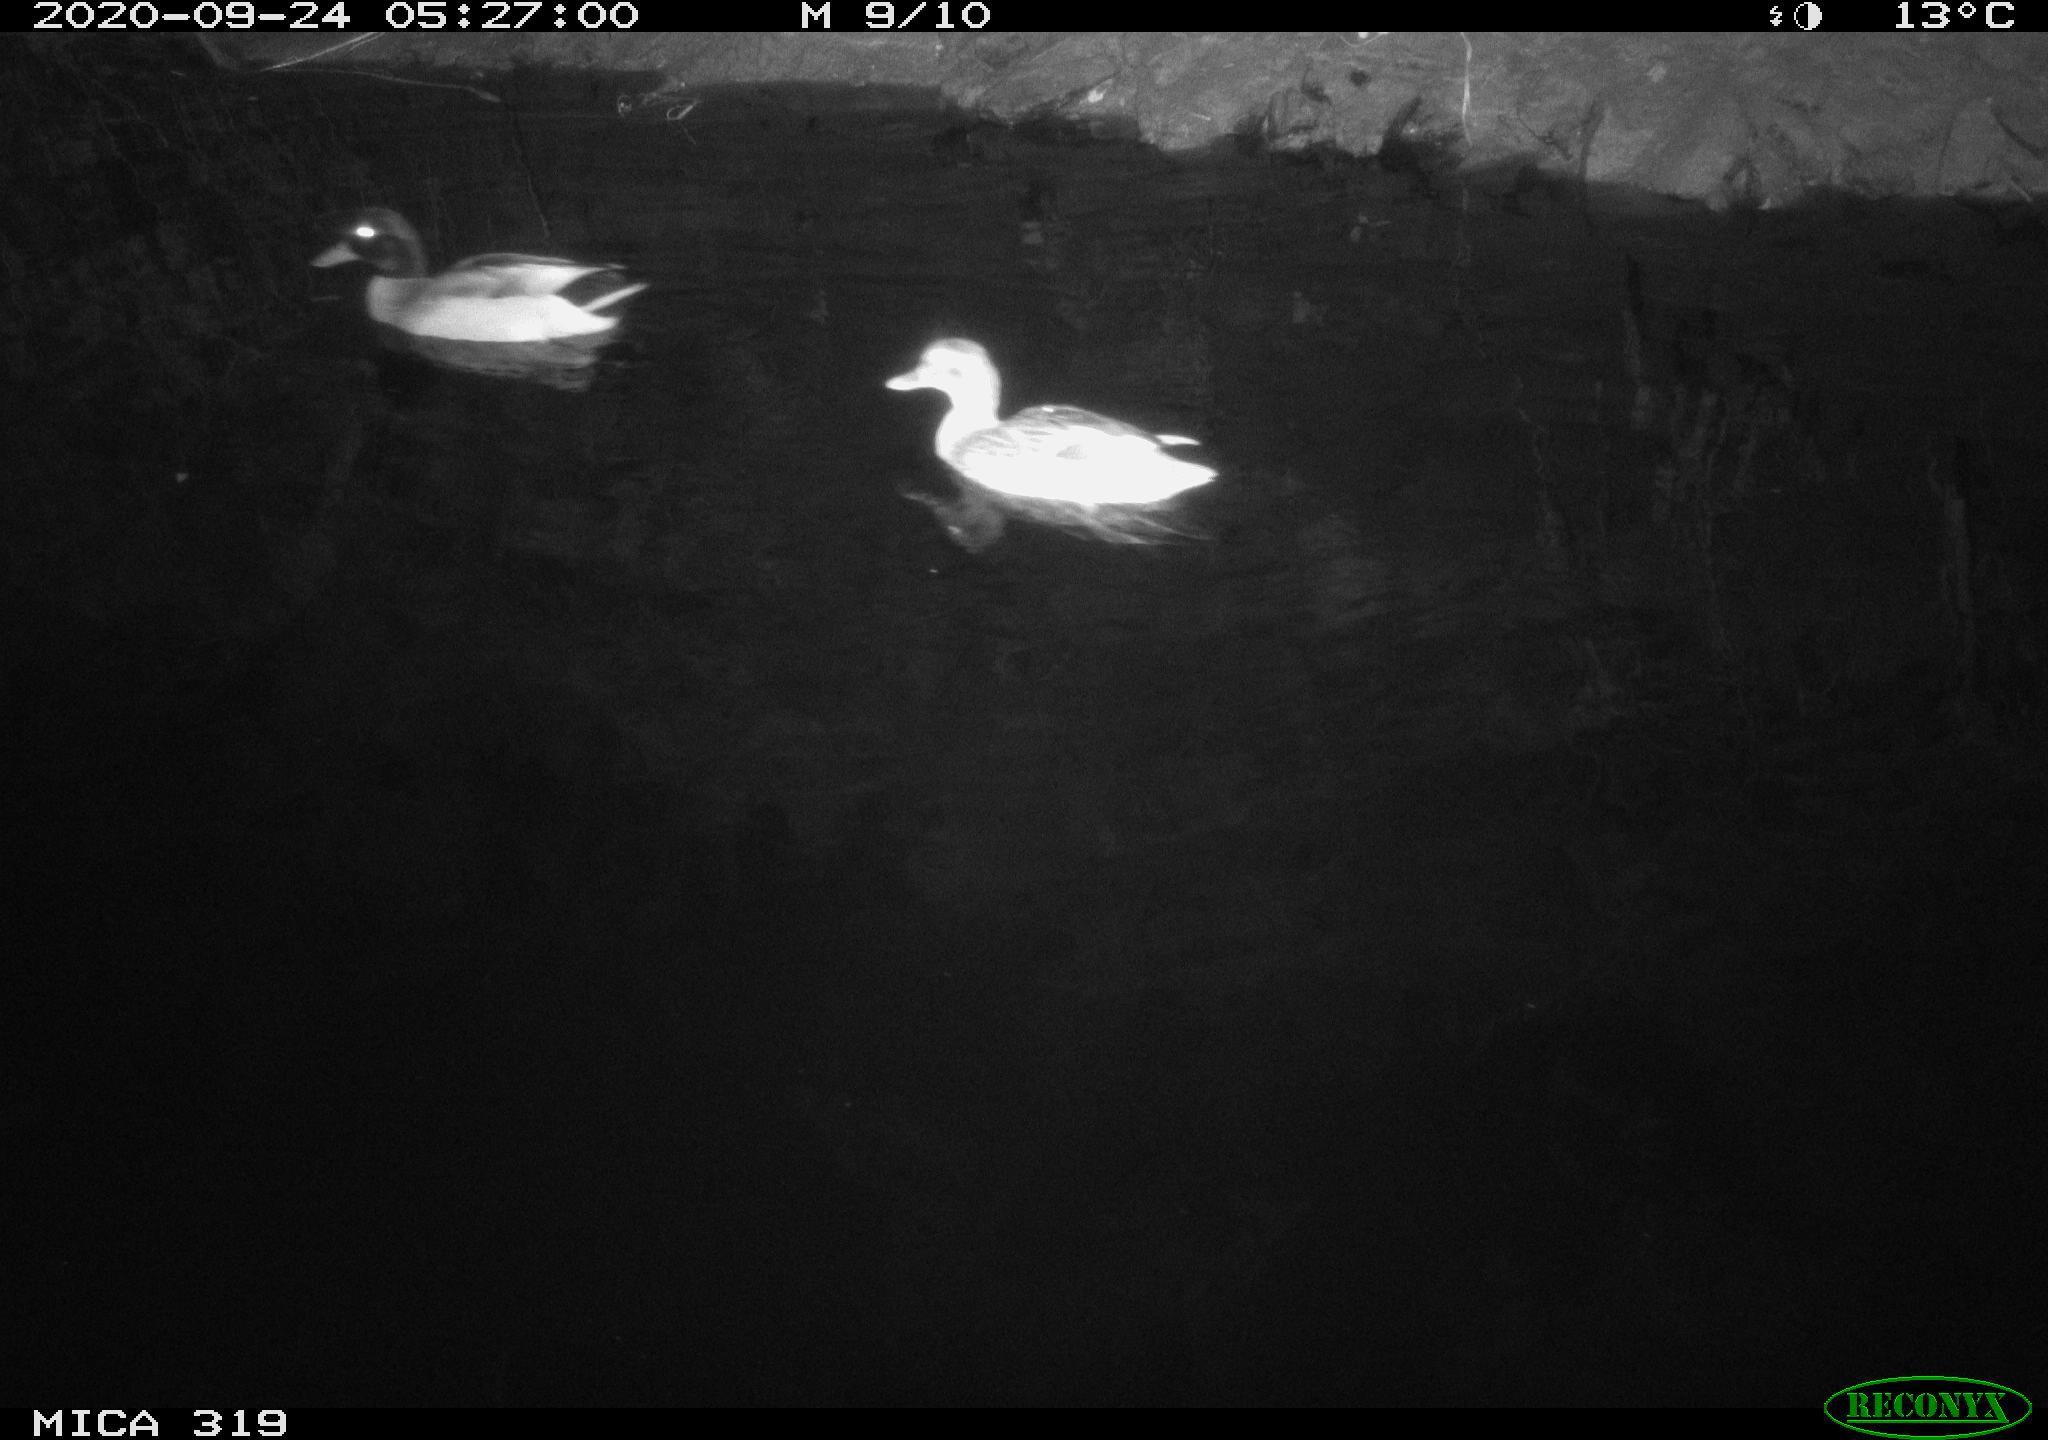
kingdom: Animalia
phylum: Chordata
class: Aves
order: Anseriformes
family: Anatidae
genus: Anas
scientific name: Anas platyrhynchos
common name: Mallard
